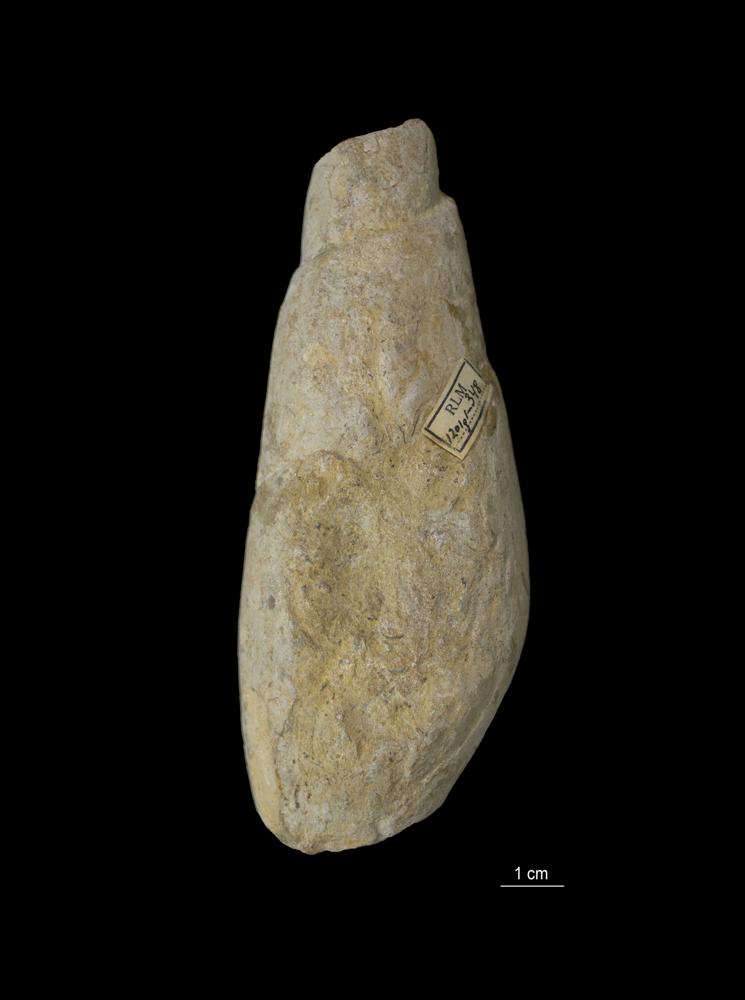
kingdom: Animalia
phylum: Mollusca
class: Gastropoda
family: Subulitidae
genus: Subulites
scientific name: Subulites Phasianella gigas
